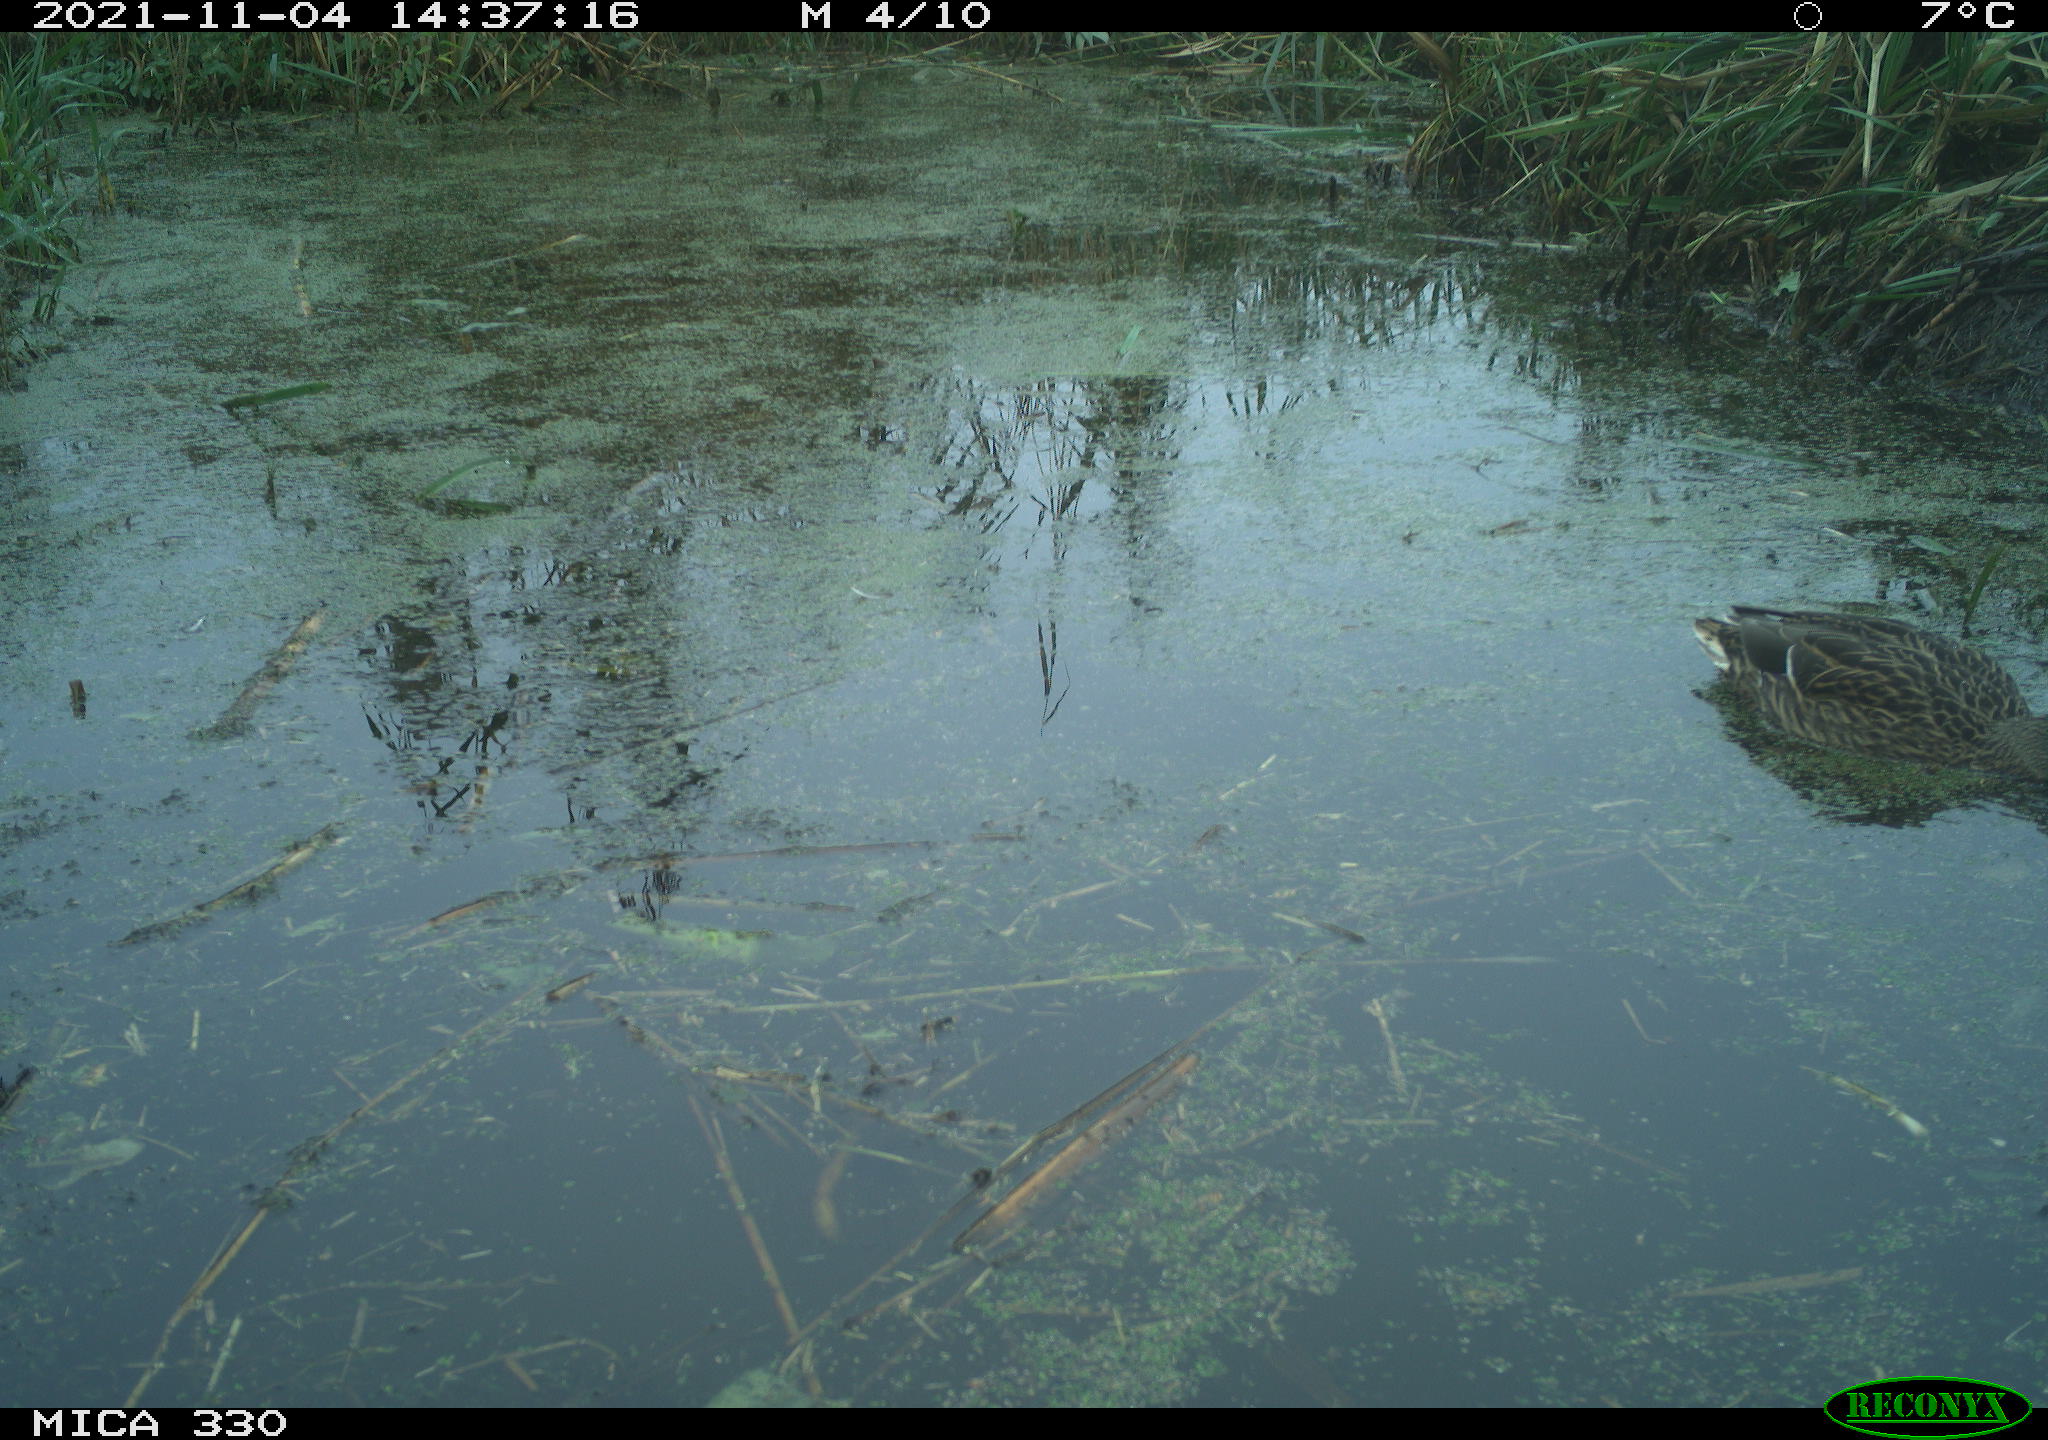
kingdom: Animalia
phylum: Chordata
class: Aves
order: Anseriformes
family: Anatidae
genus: Anas
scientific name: Anas platyrhynchos
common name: Mallard
